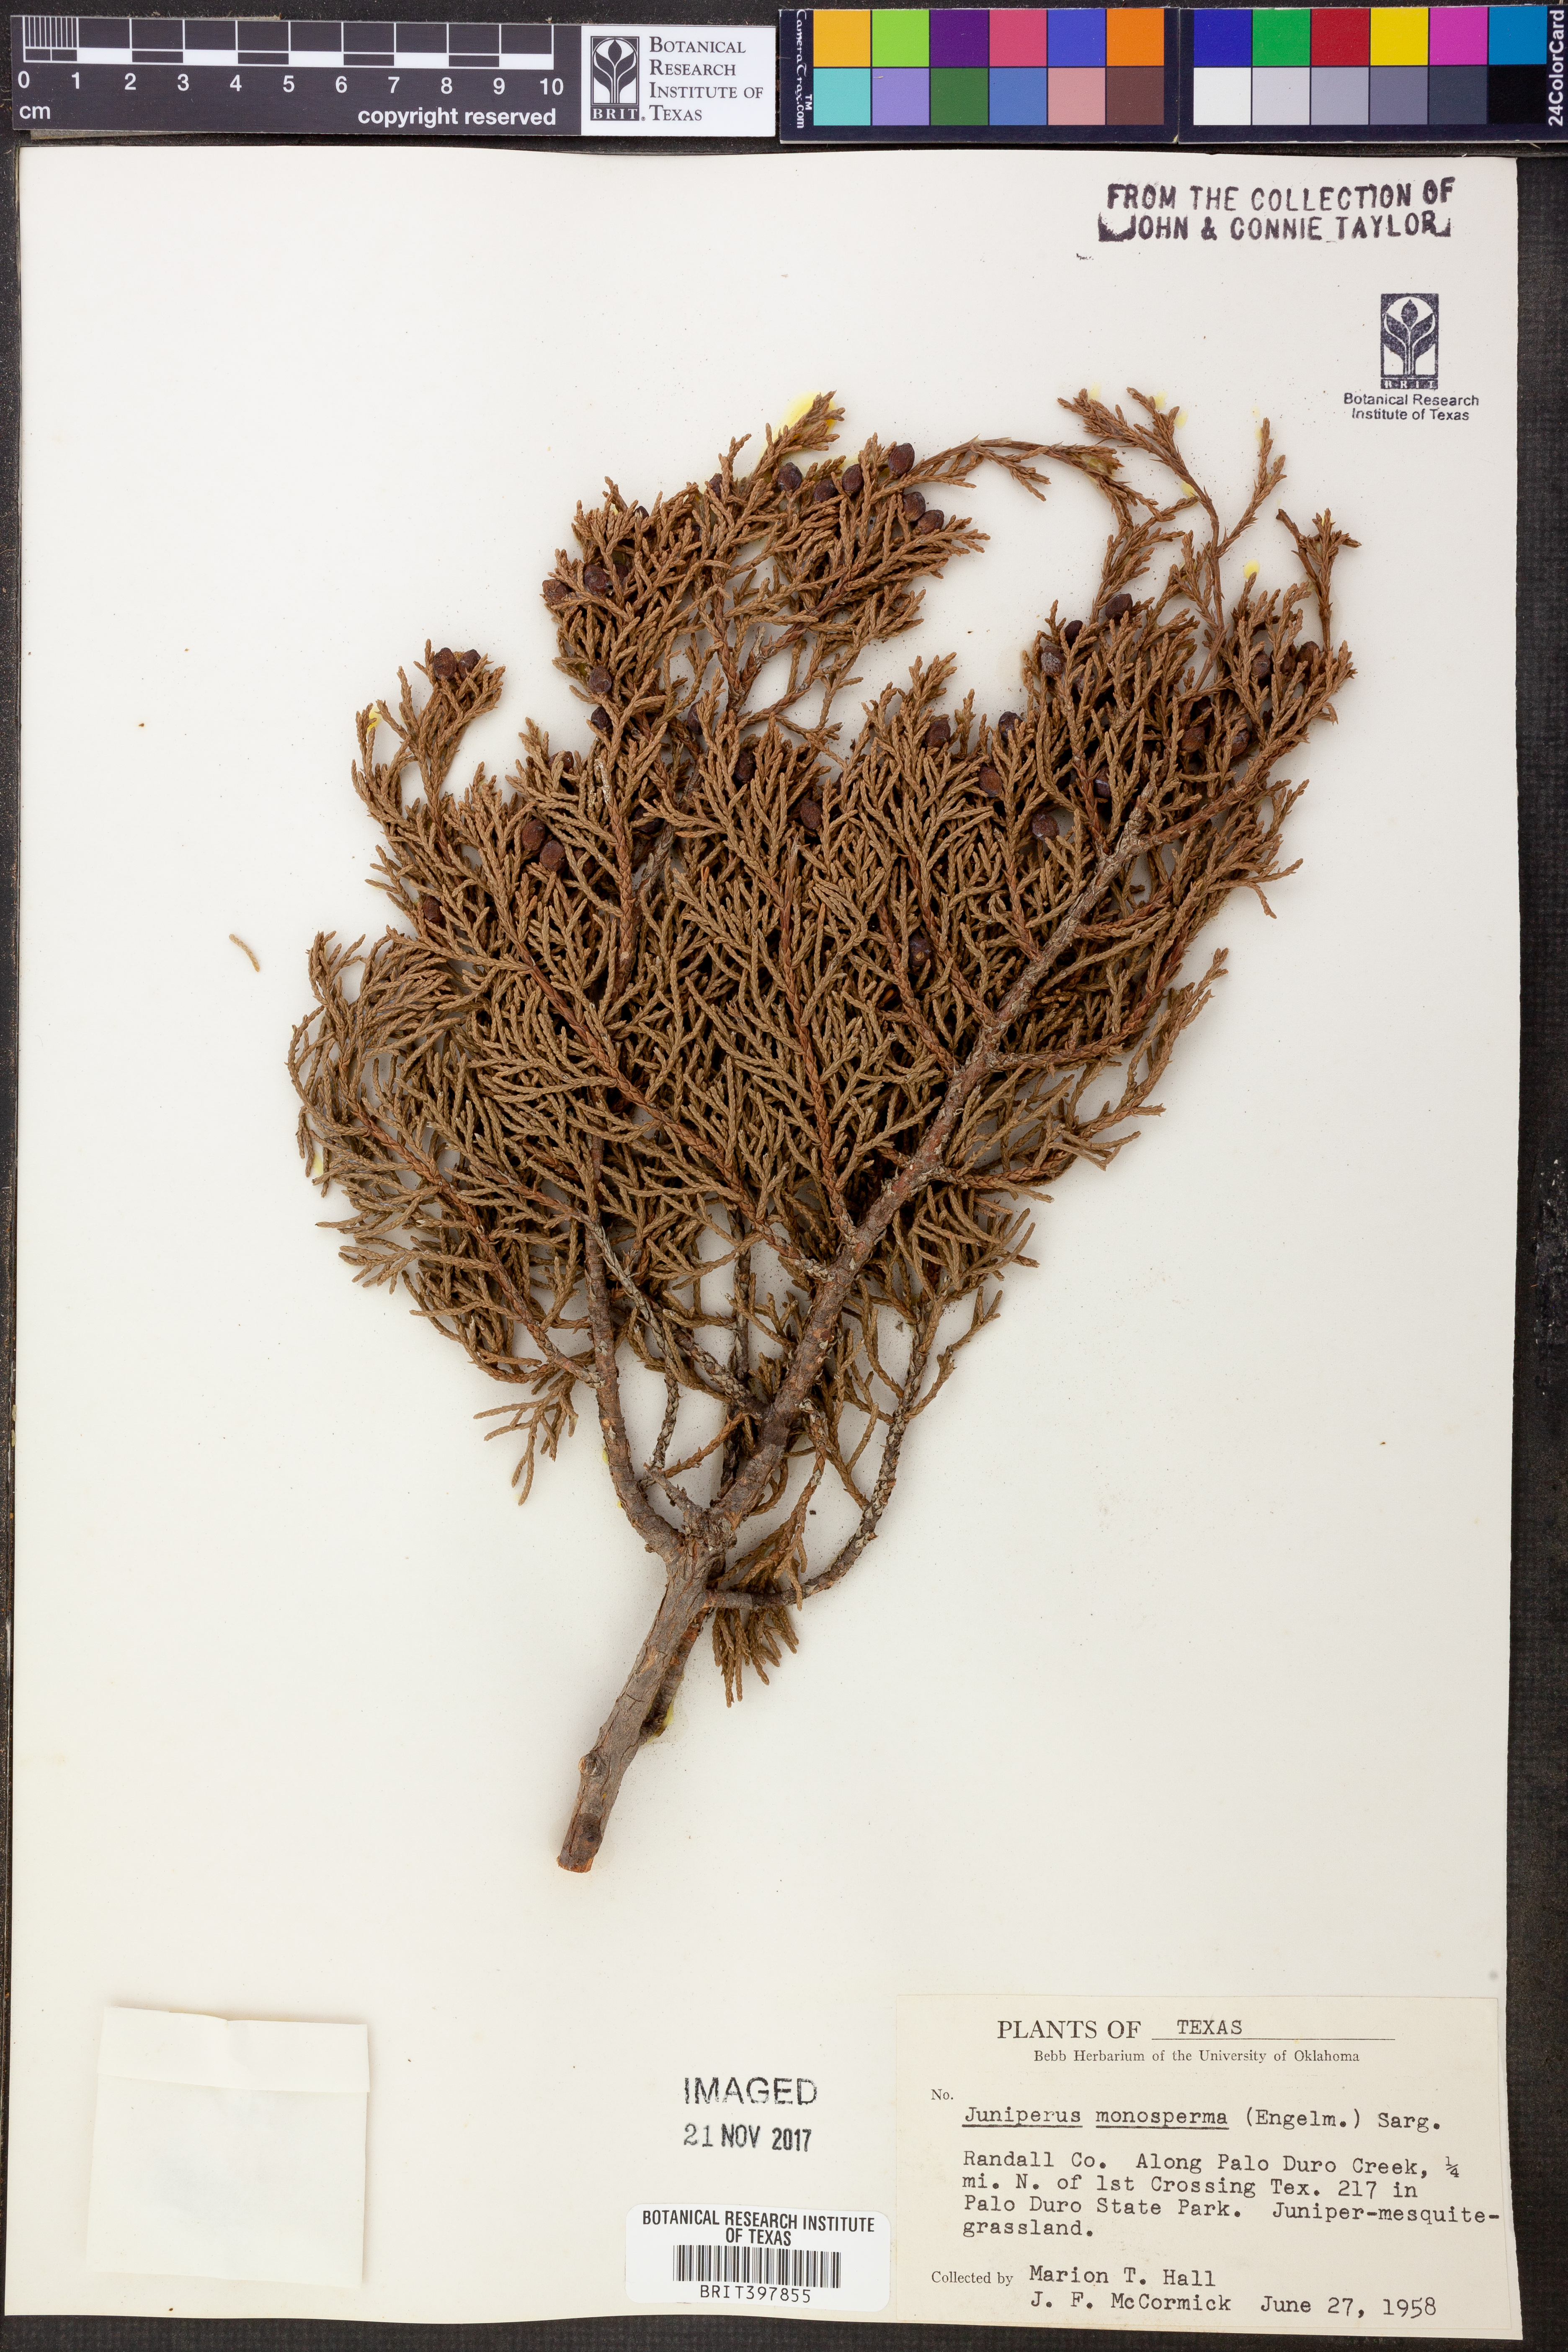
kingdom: Plantae
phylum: Tracheophyta
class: Pinopsida
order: Pinales
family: Cupressaceae
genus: Juniperus
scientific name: Juniperus monosperma
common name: One-seed juniper
